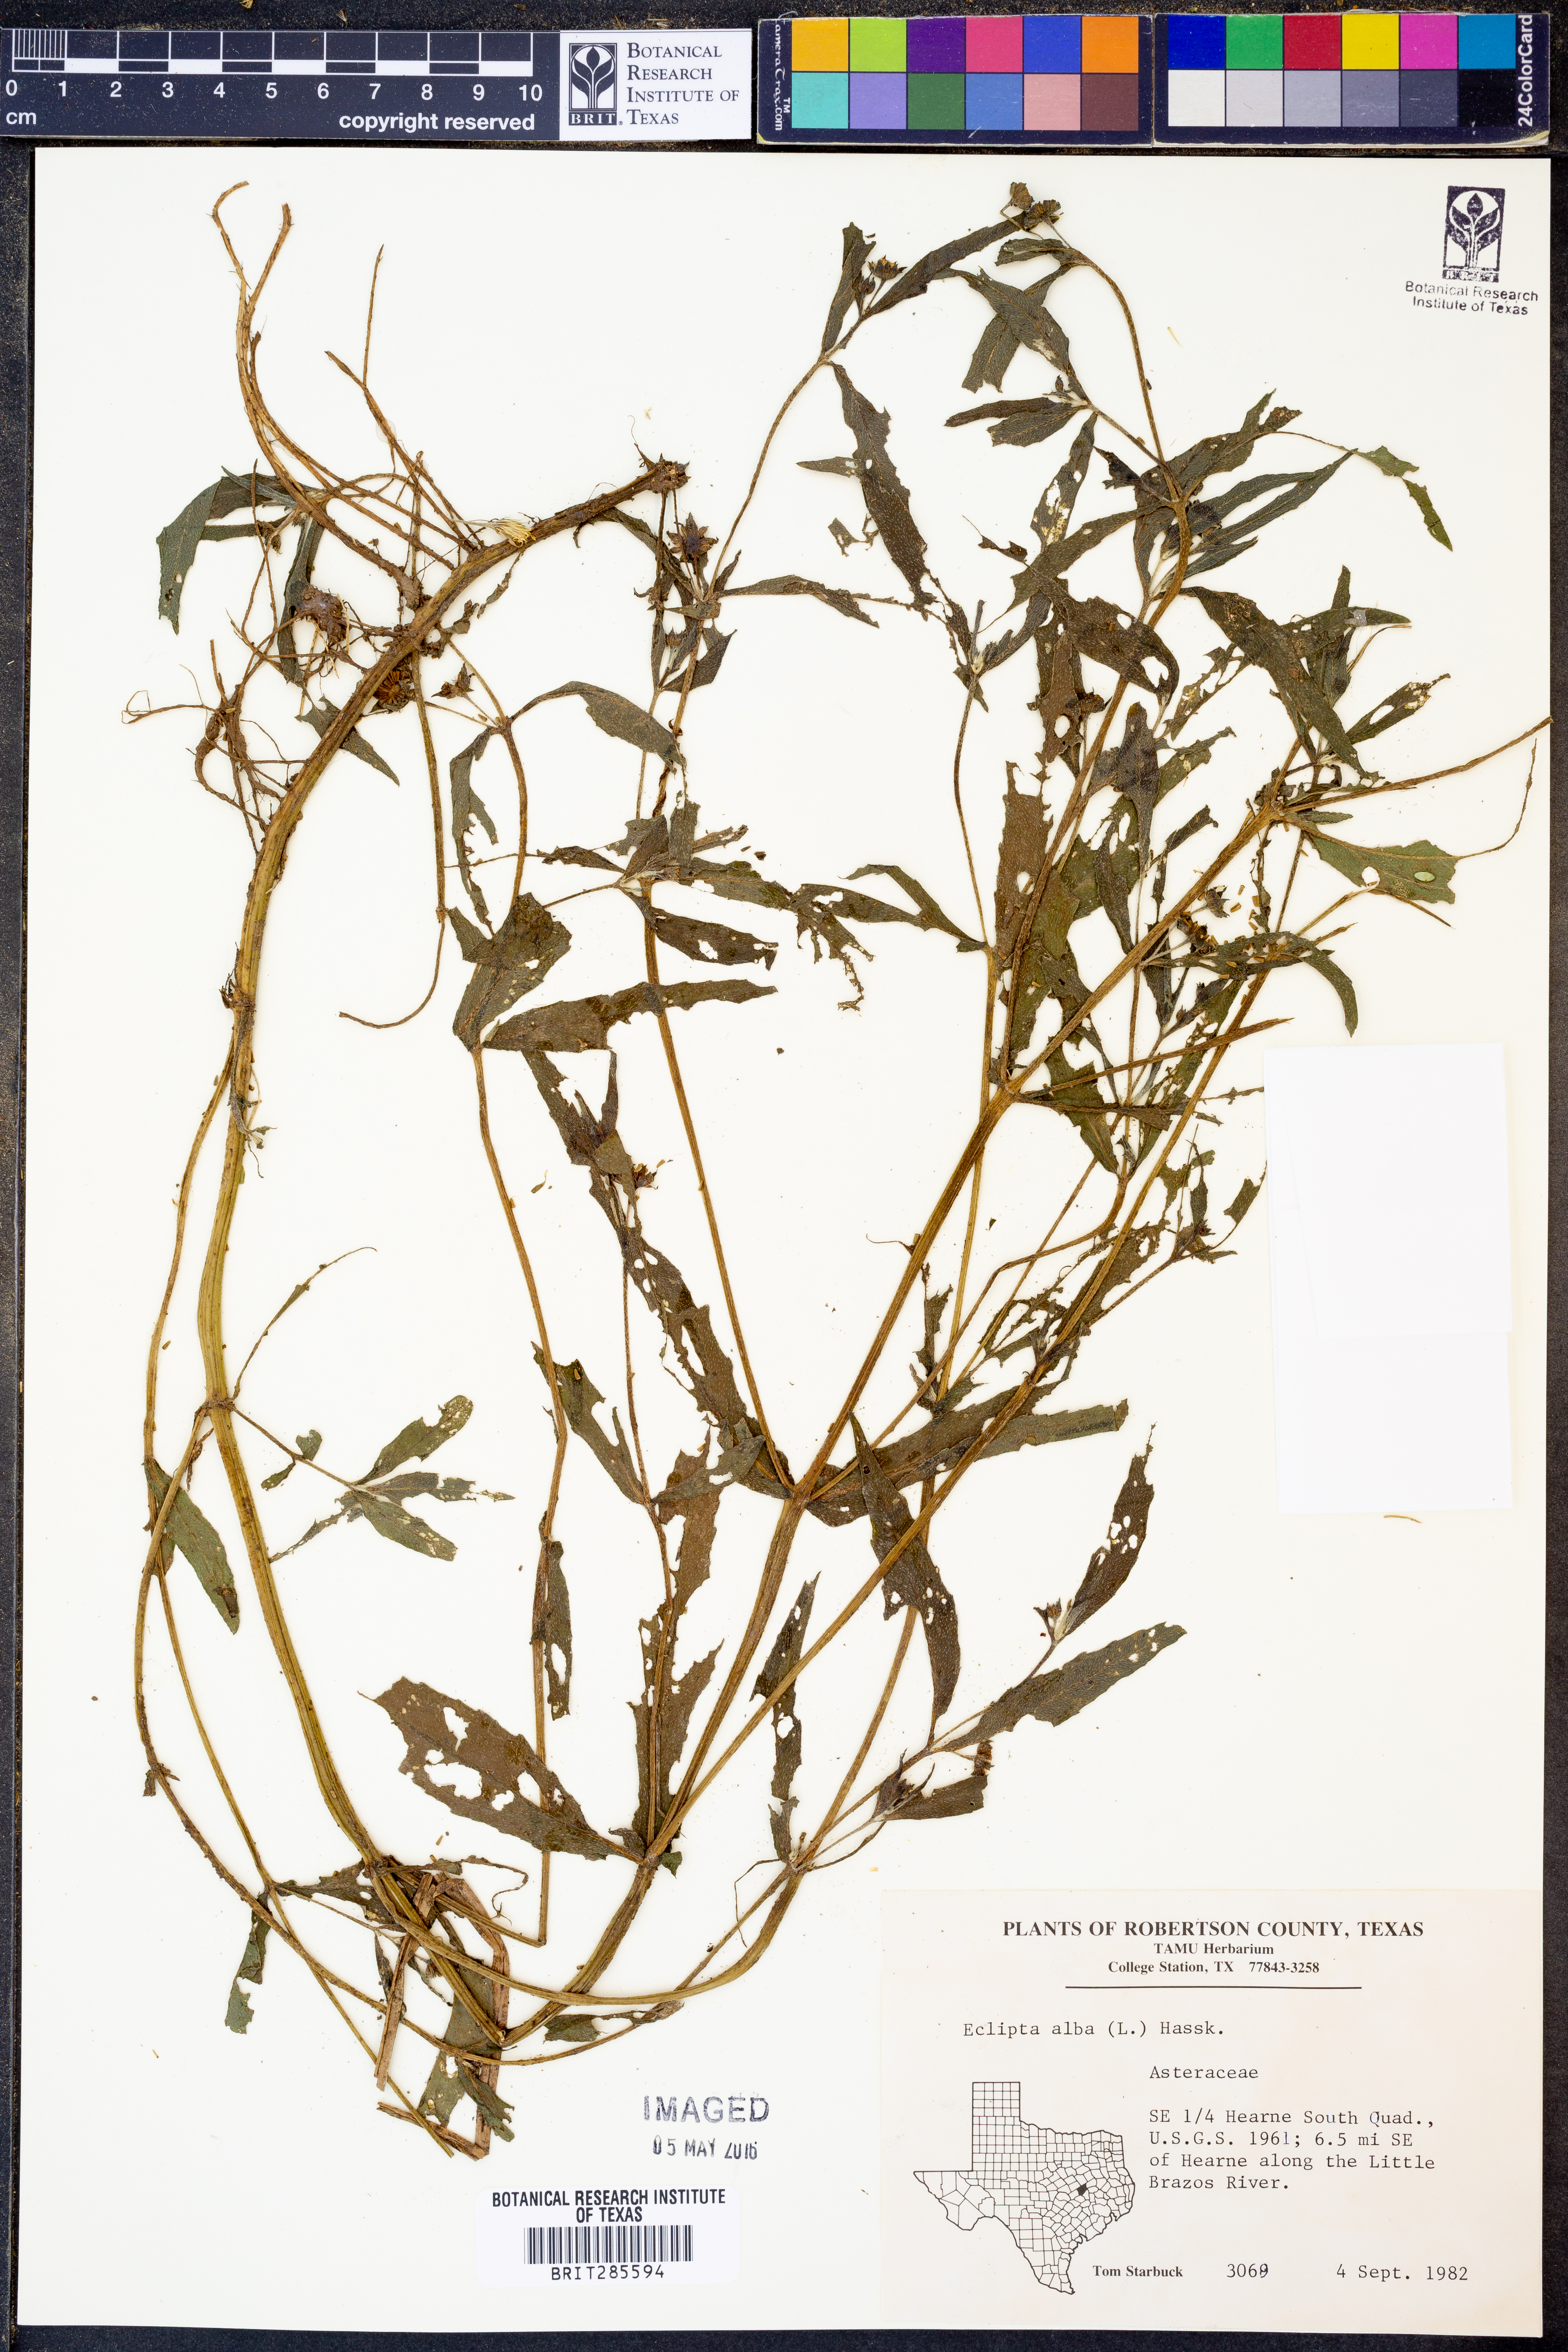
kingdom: Plantae
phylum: Tracheophyta
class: Magnoliopsida
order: Asterales
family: Asteraceae
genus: Eclipta
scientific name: Eclipta alba
